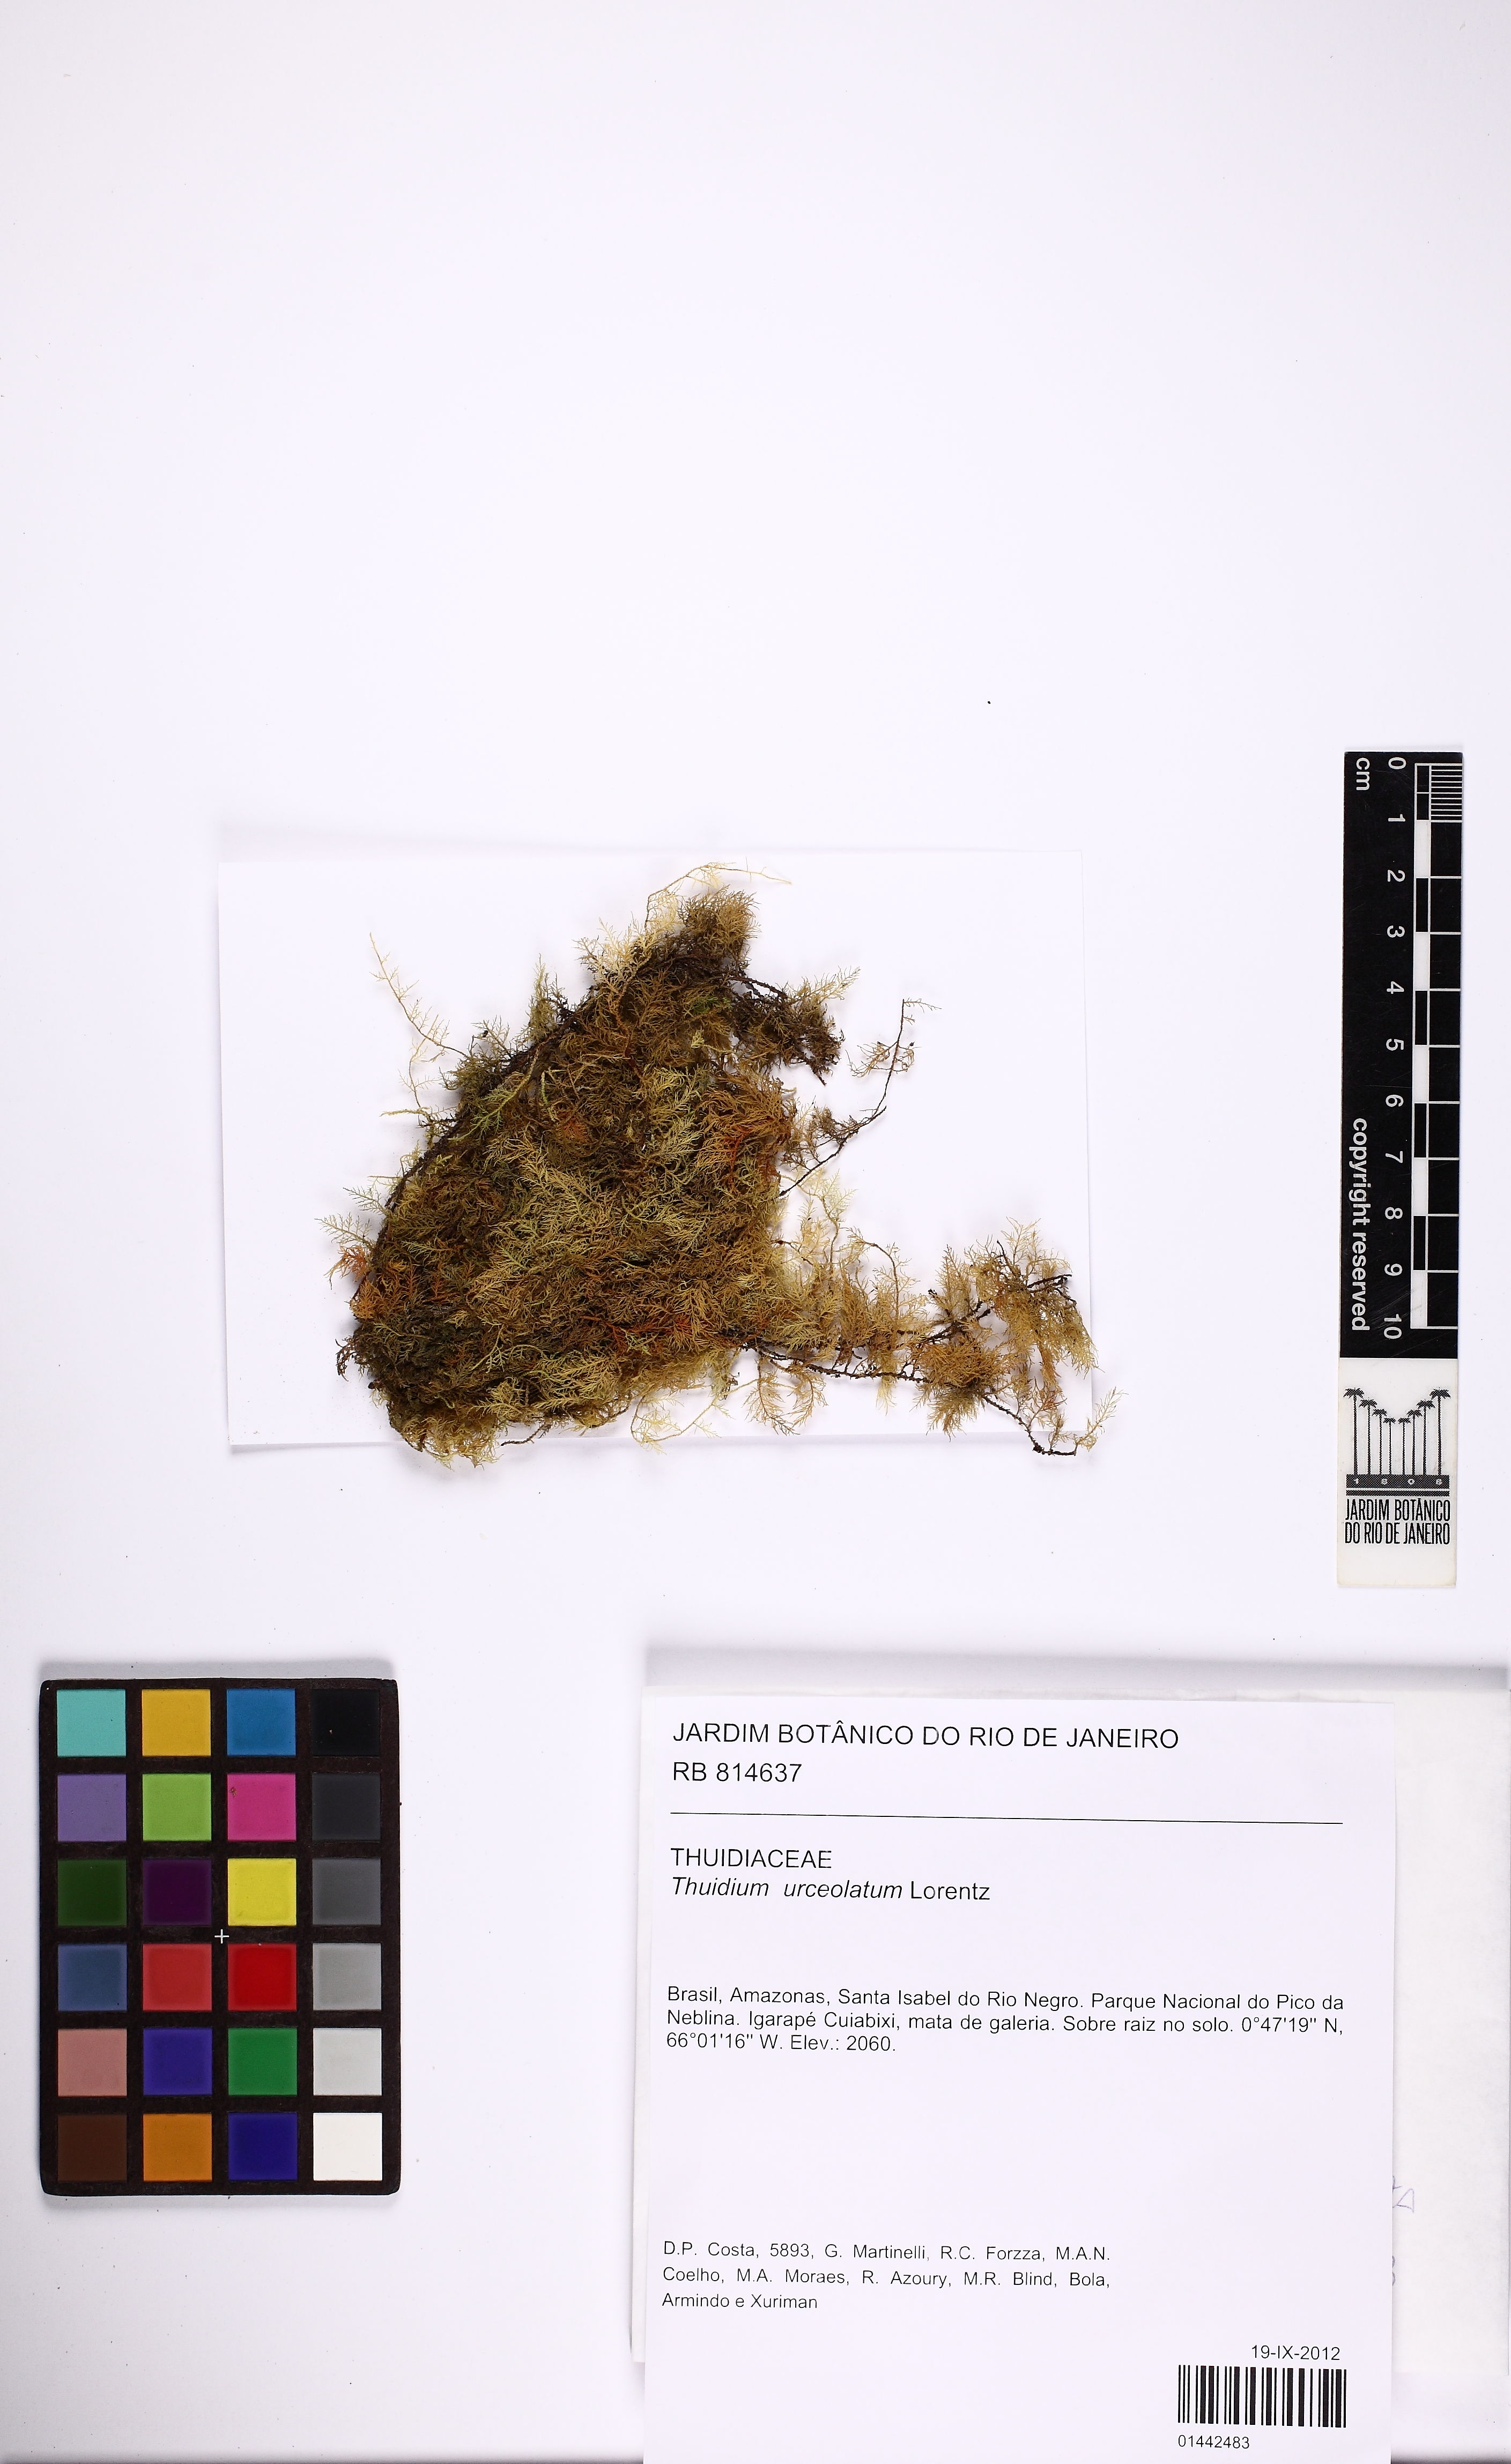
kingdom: Plantae
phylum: Bryophyta
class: Bryopsida
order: Hypnales
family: Thuidiaceae
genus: Thuidium
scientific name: Thuidium urceolatum
